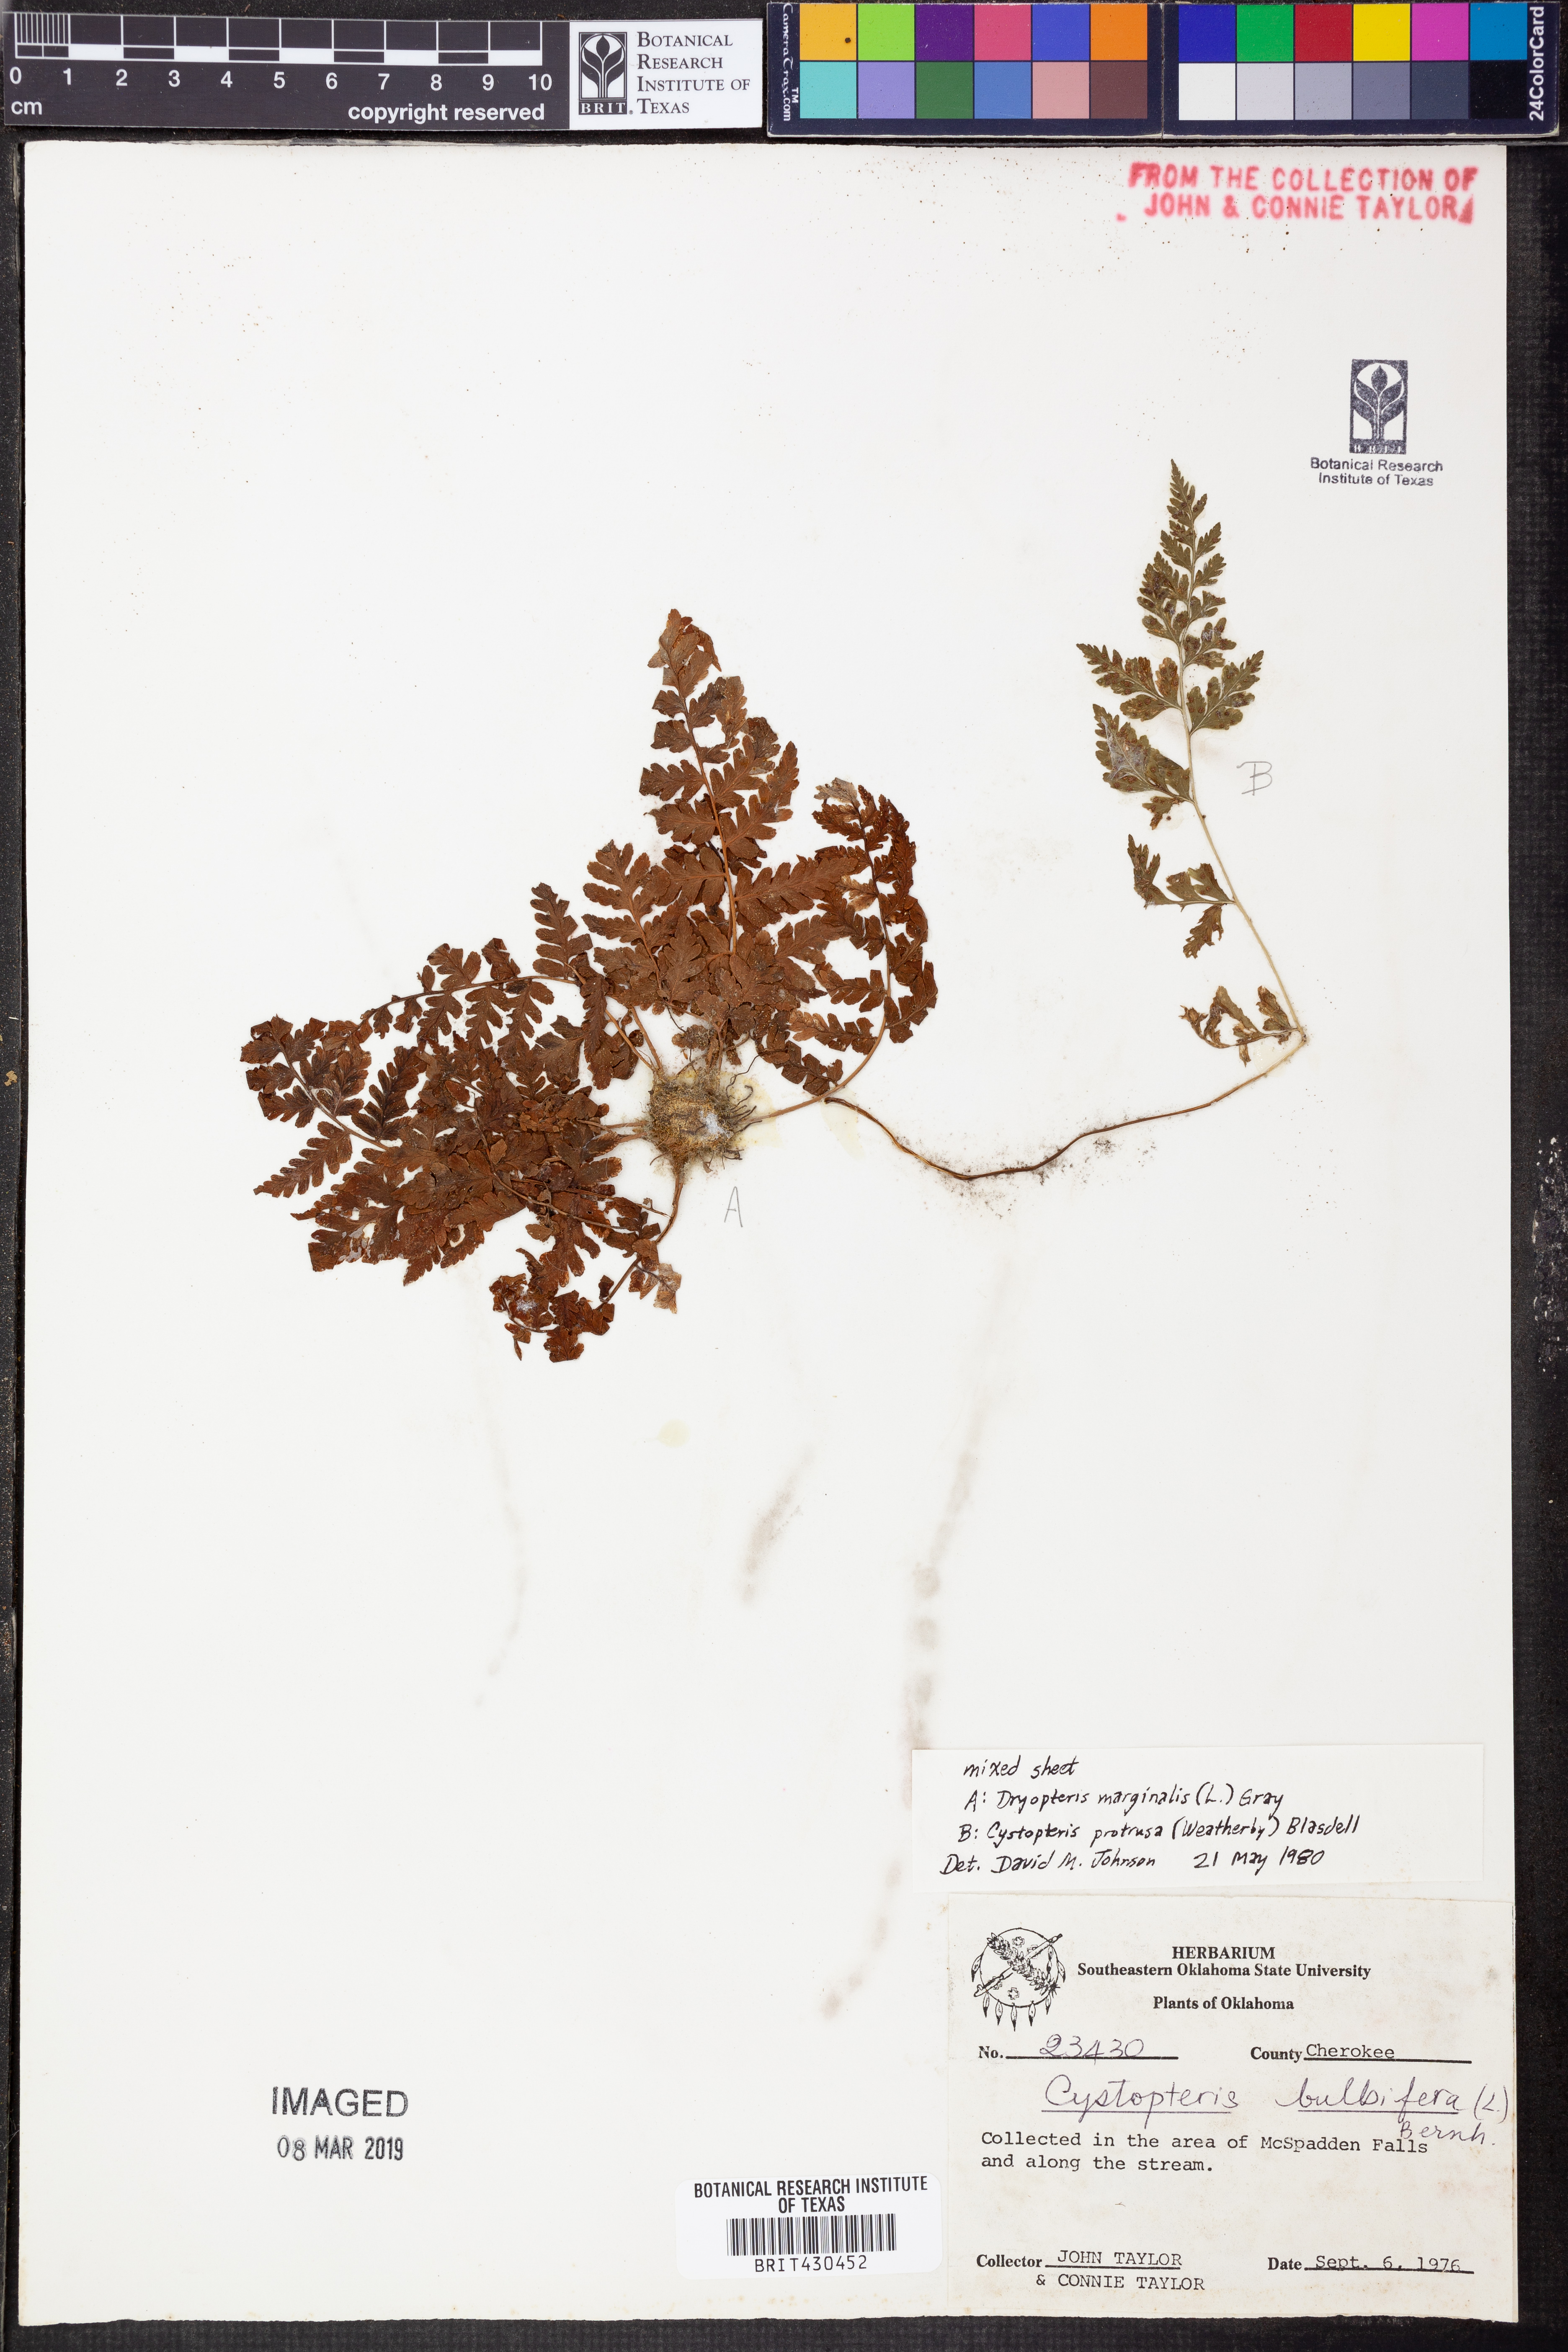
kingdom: Plantae
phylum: Tracheophyta
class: Polypodiopsida
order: Polypodiales
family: Dryopteridaceae
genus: Dryopteris
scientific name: Dryopteris marginalis
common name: Marginal wood fern
